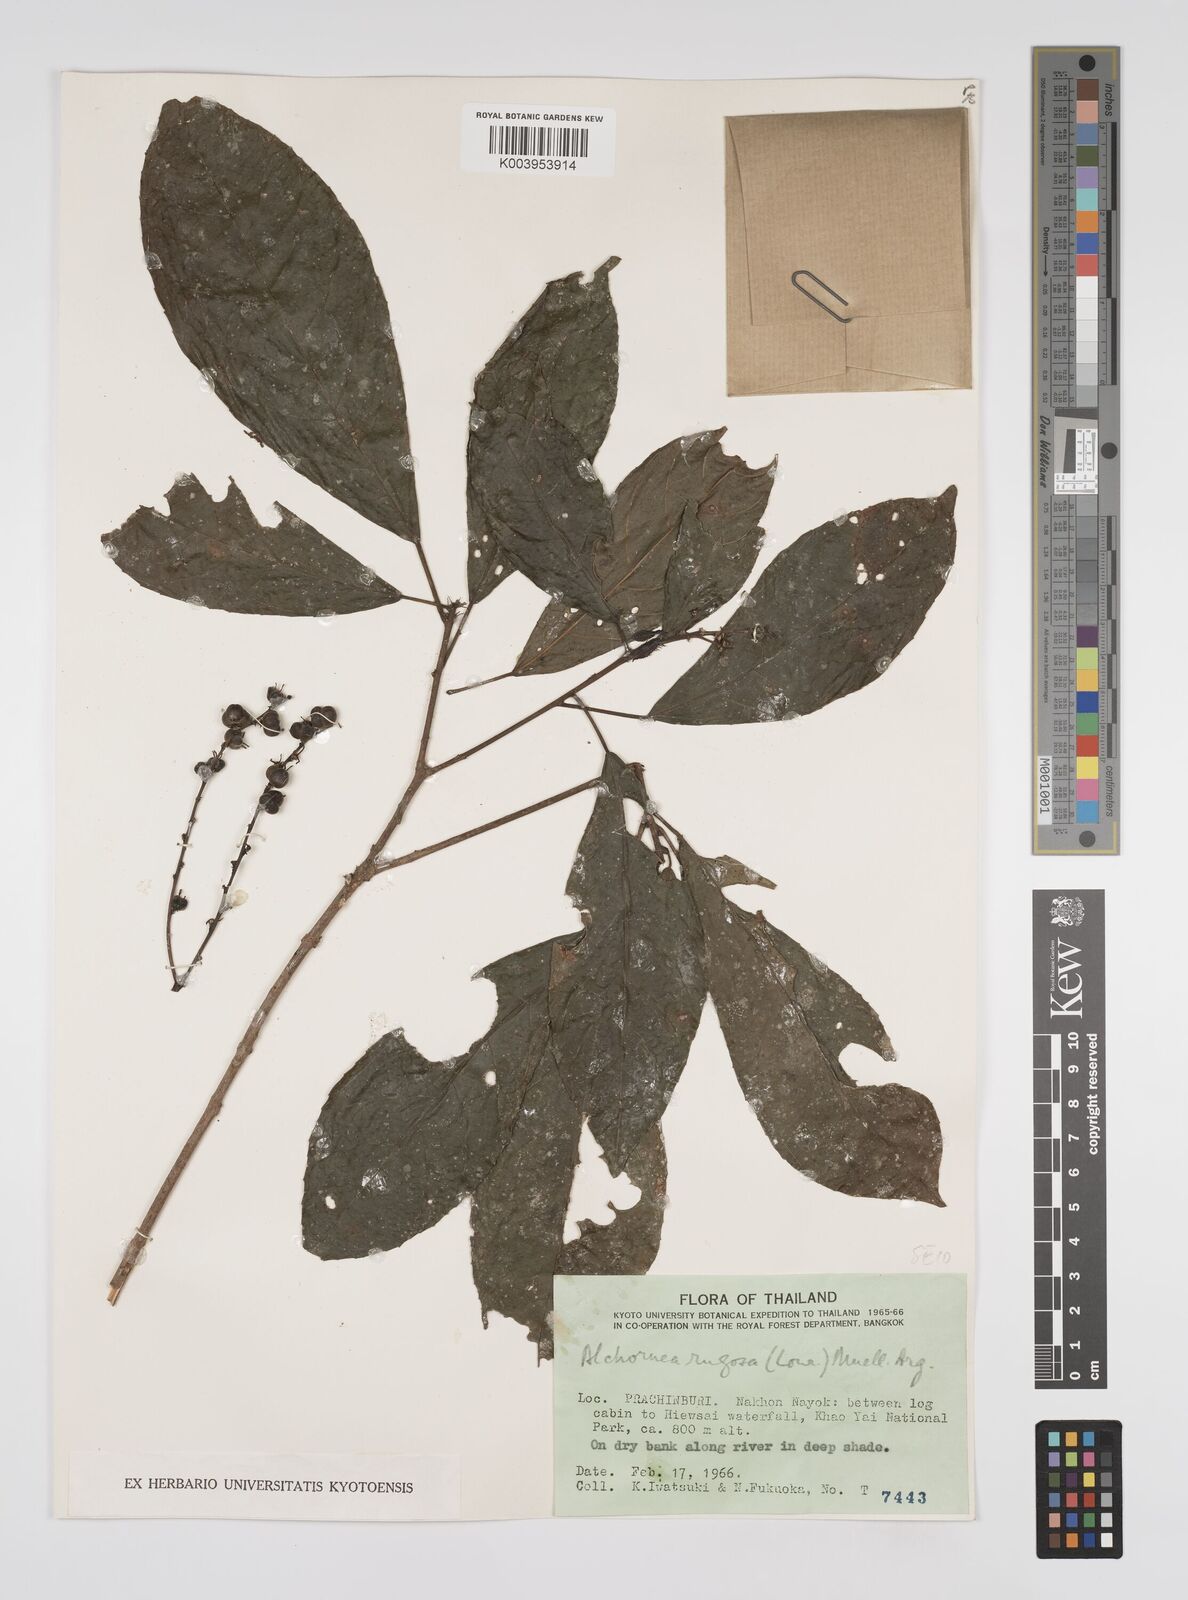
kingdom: Plantae
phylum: Tracheophyta
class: Magnoliopsida
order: Malpighiales
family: Euphorbiaceae
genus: Alchornea
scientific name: Alchornea rugosa
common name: Alchorntree
